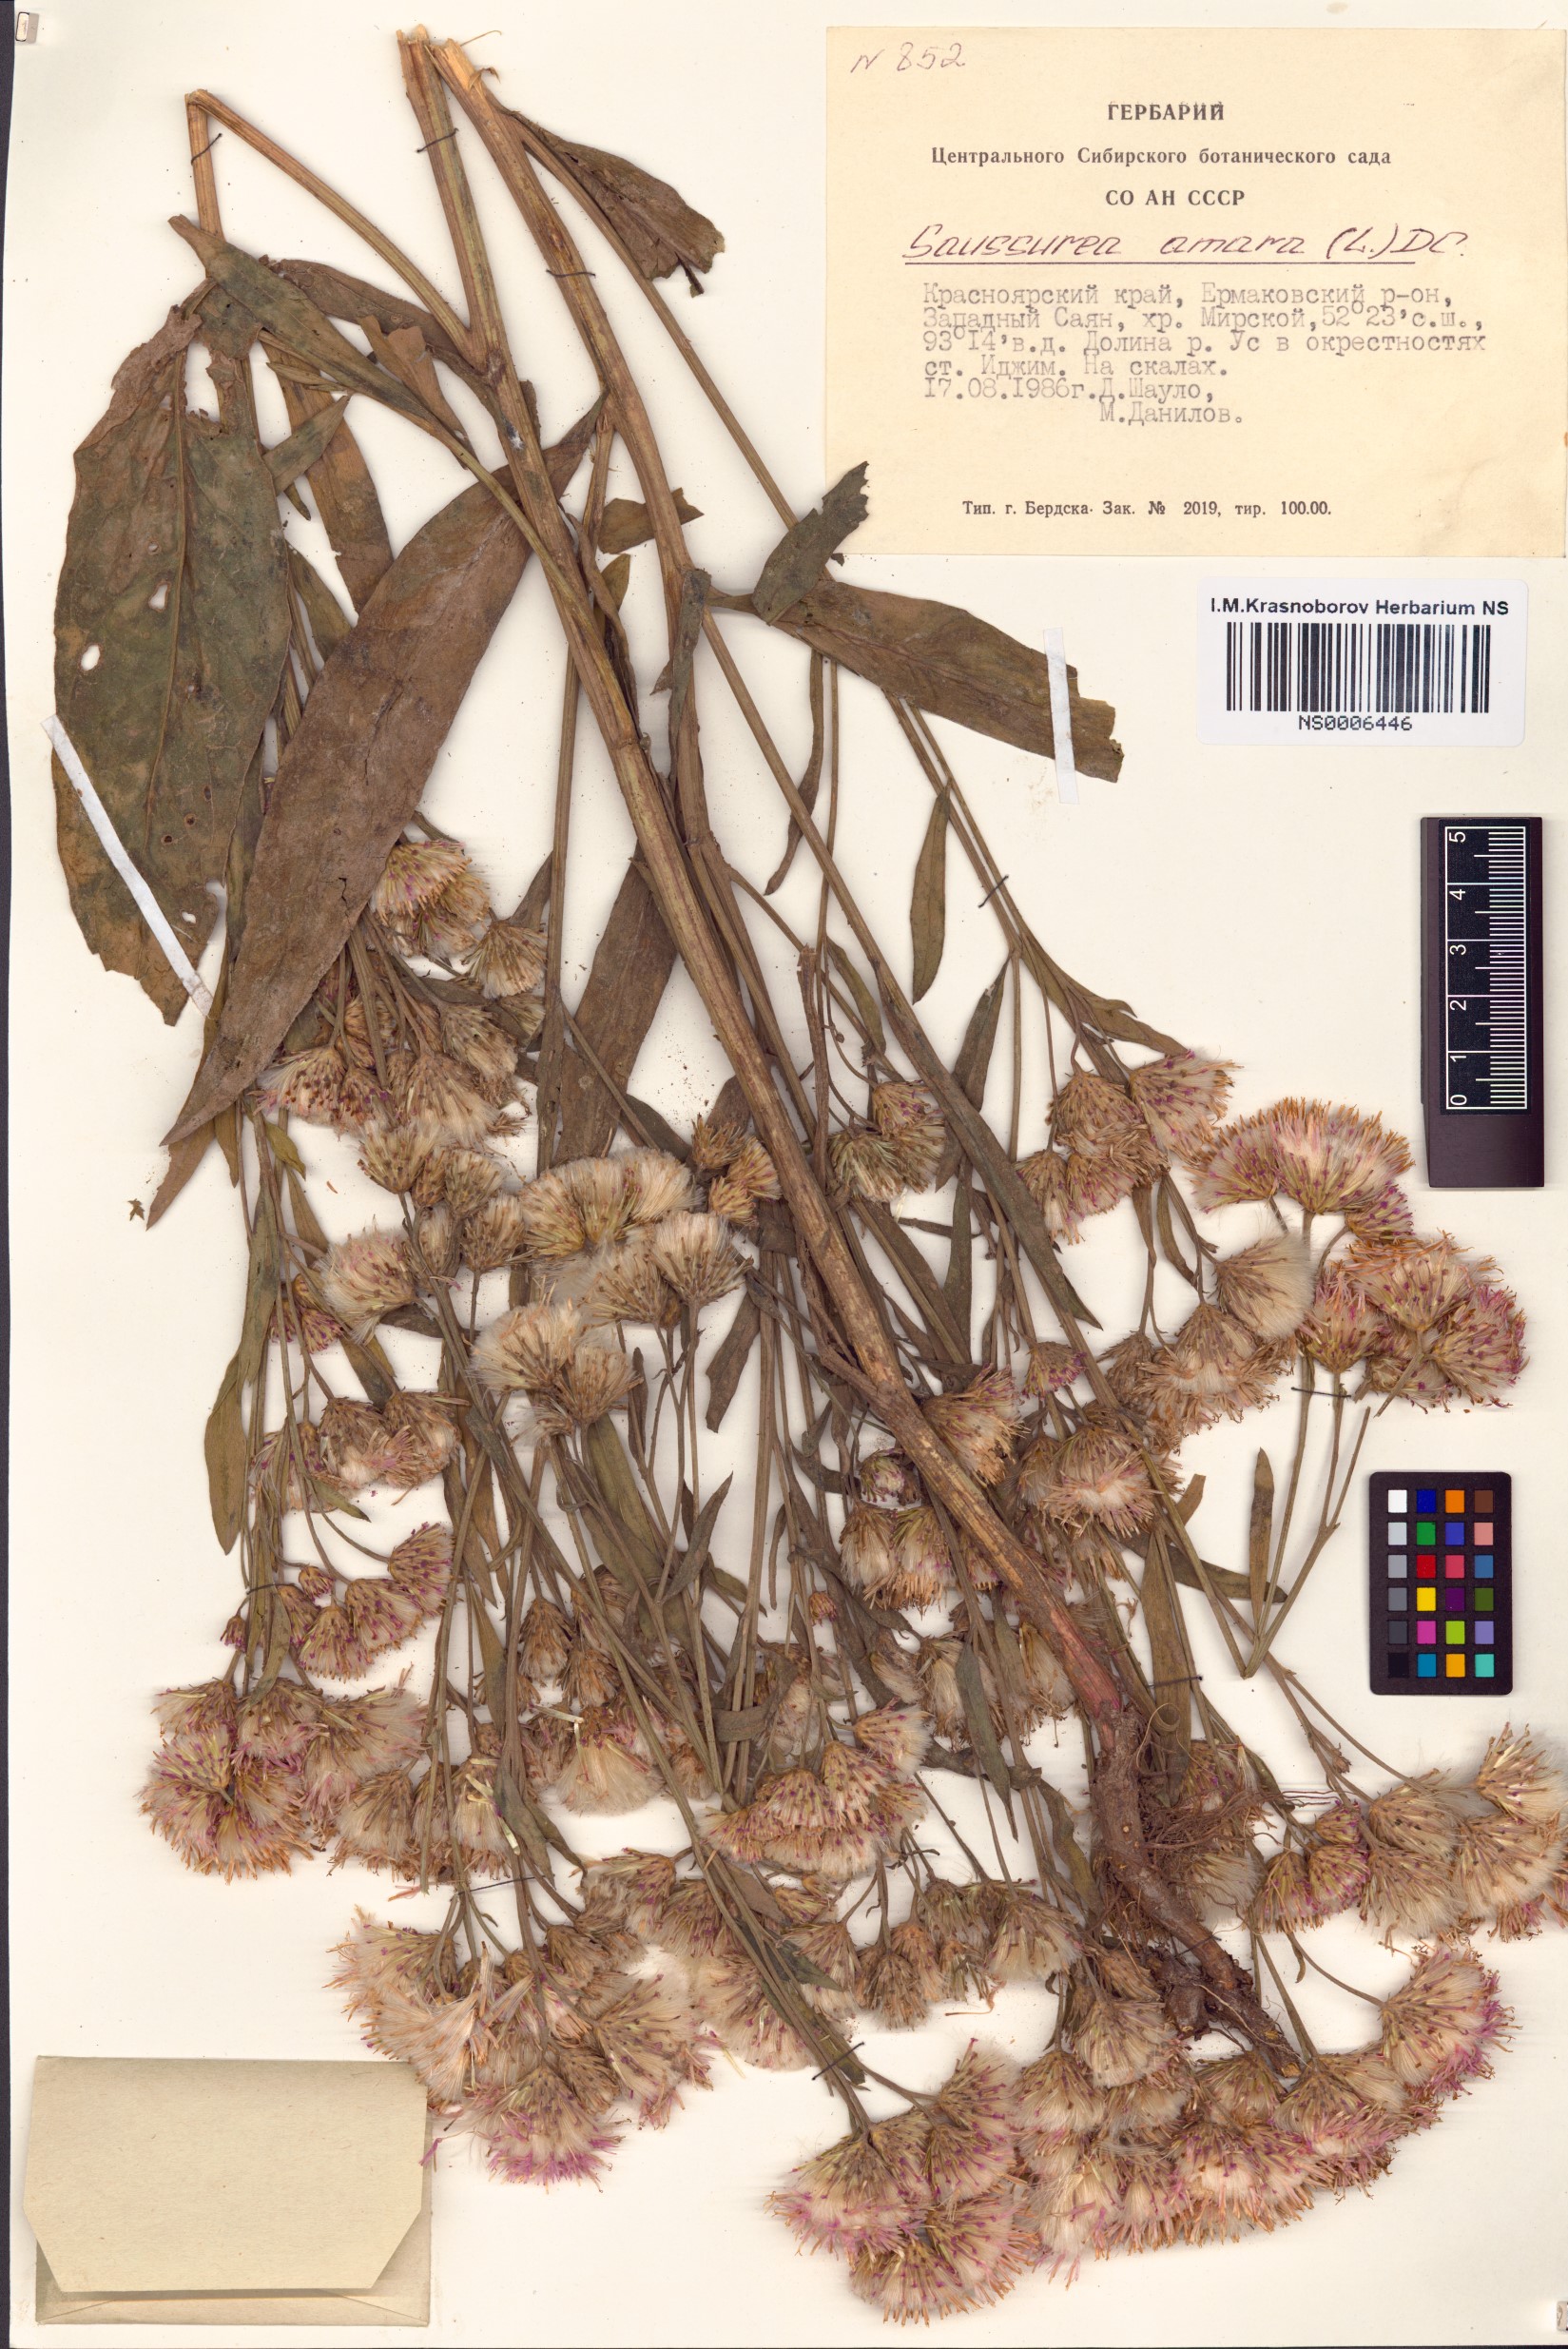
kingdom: Plantae
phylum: Tracheophyta
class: Magnoliopsida
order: Asterales
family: Asteraceae
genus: Saussurea
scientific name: Saussurea amara
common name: Alberta sawwort
